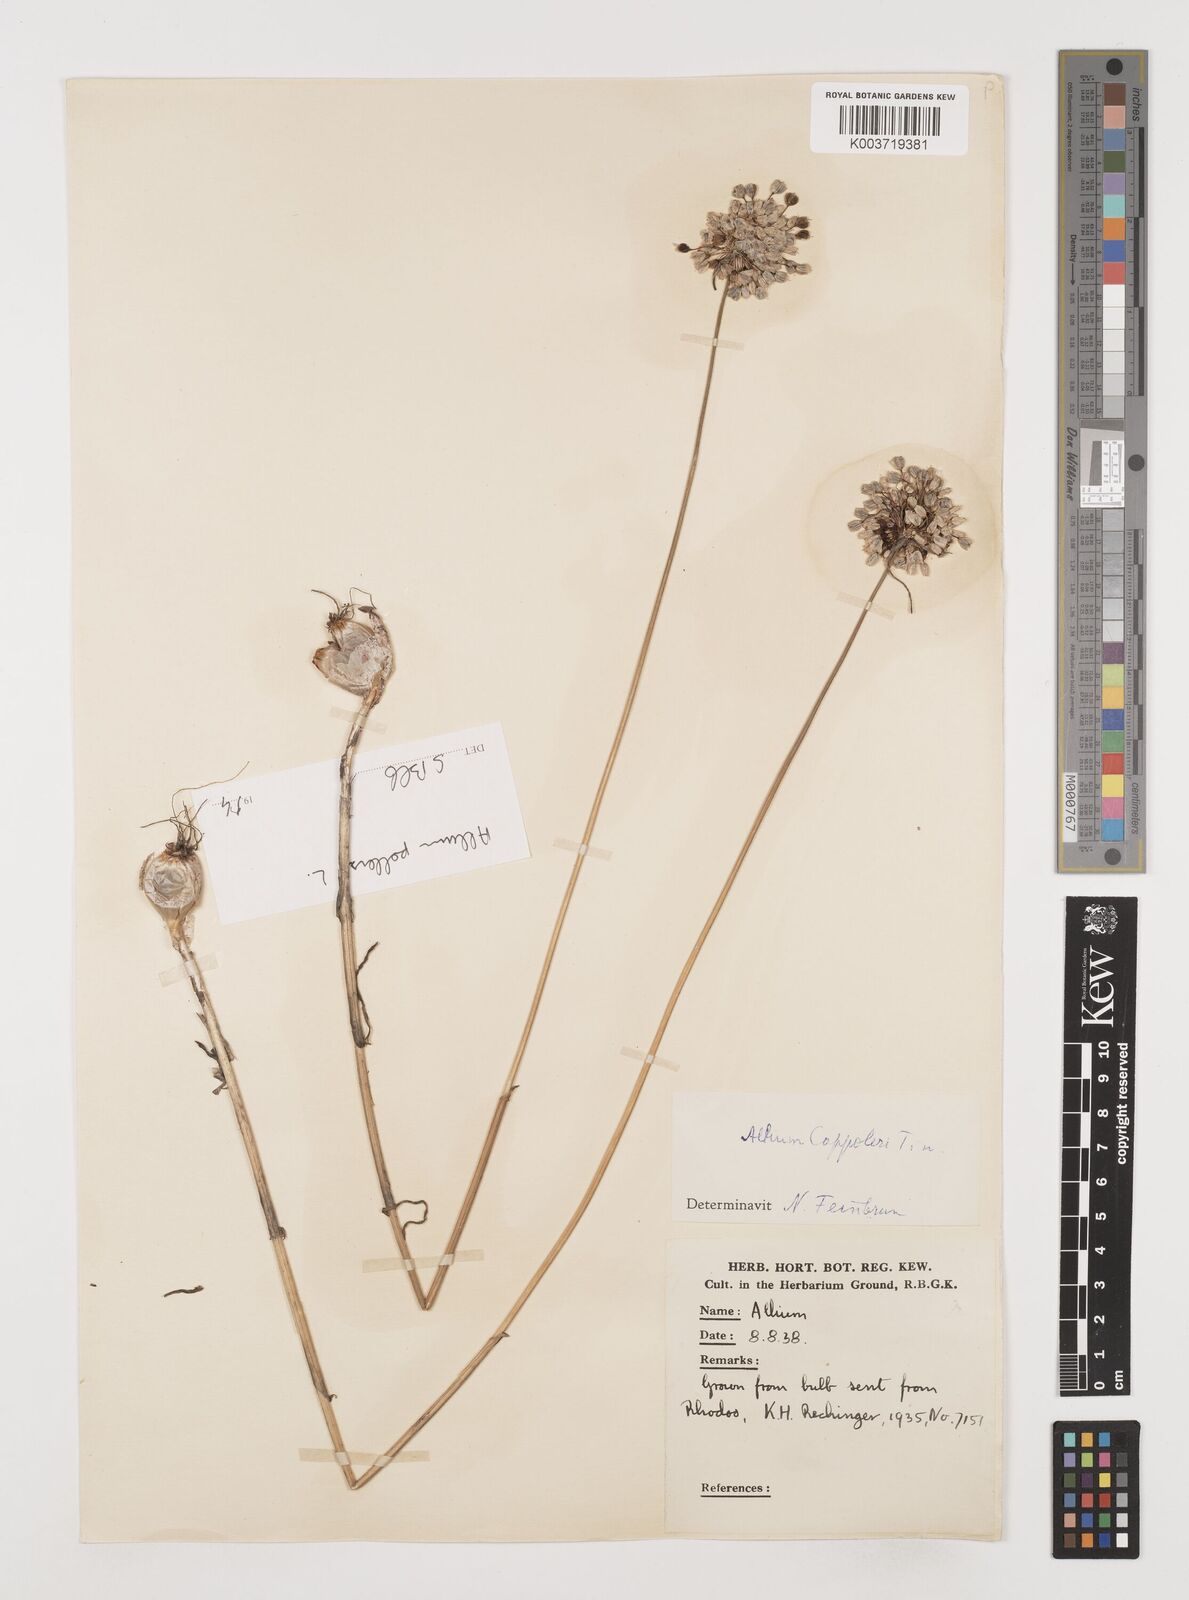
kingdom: Plantae
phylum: Tracheophyta
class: Liliopsida
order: Asparagales
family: Amaryllidaceae
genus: Allium
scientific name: Allium coppoleri
